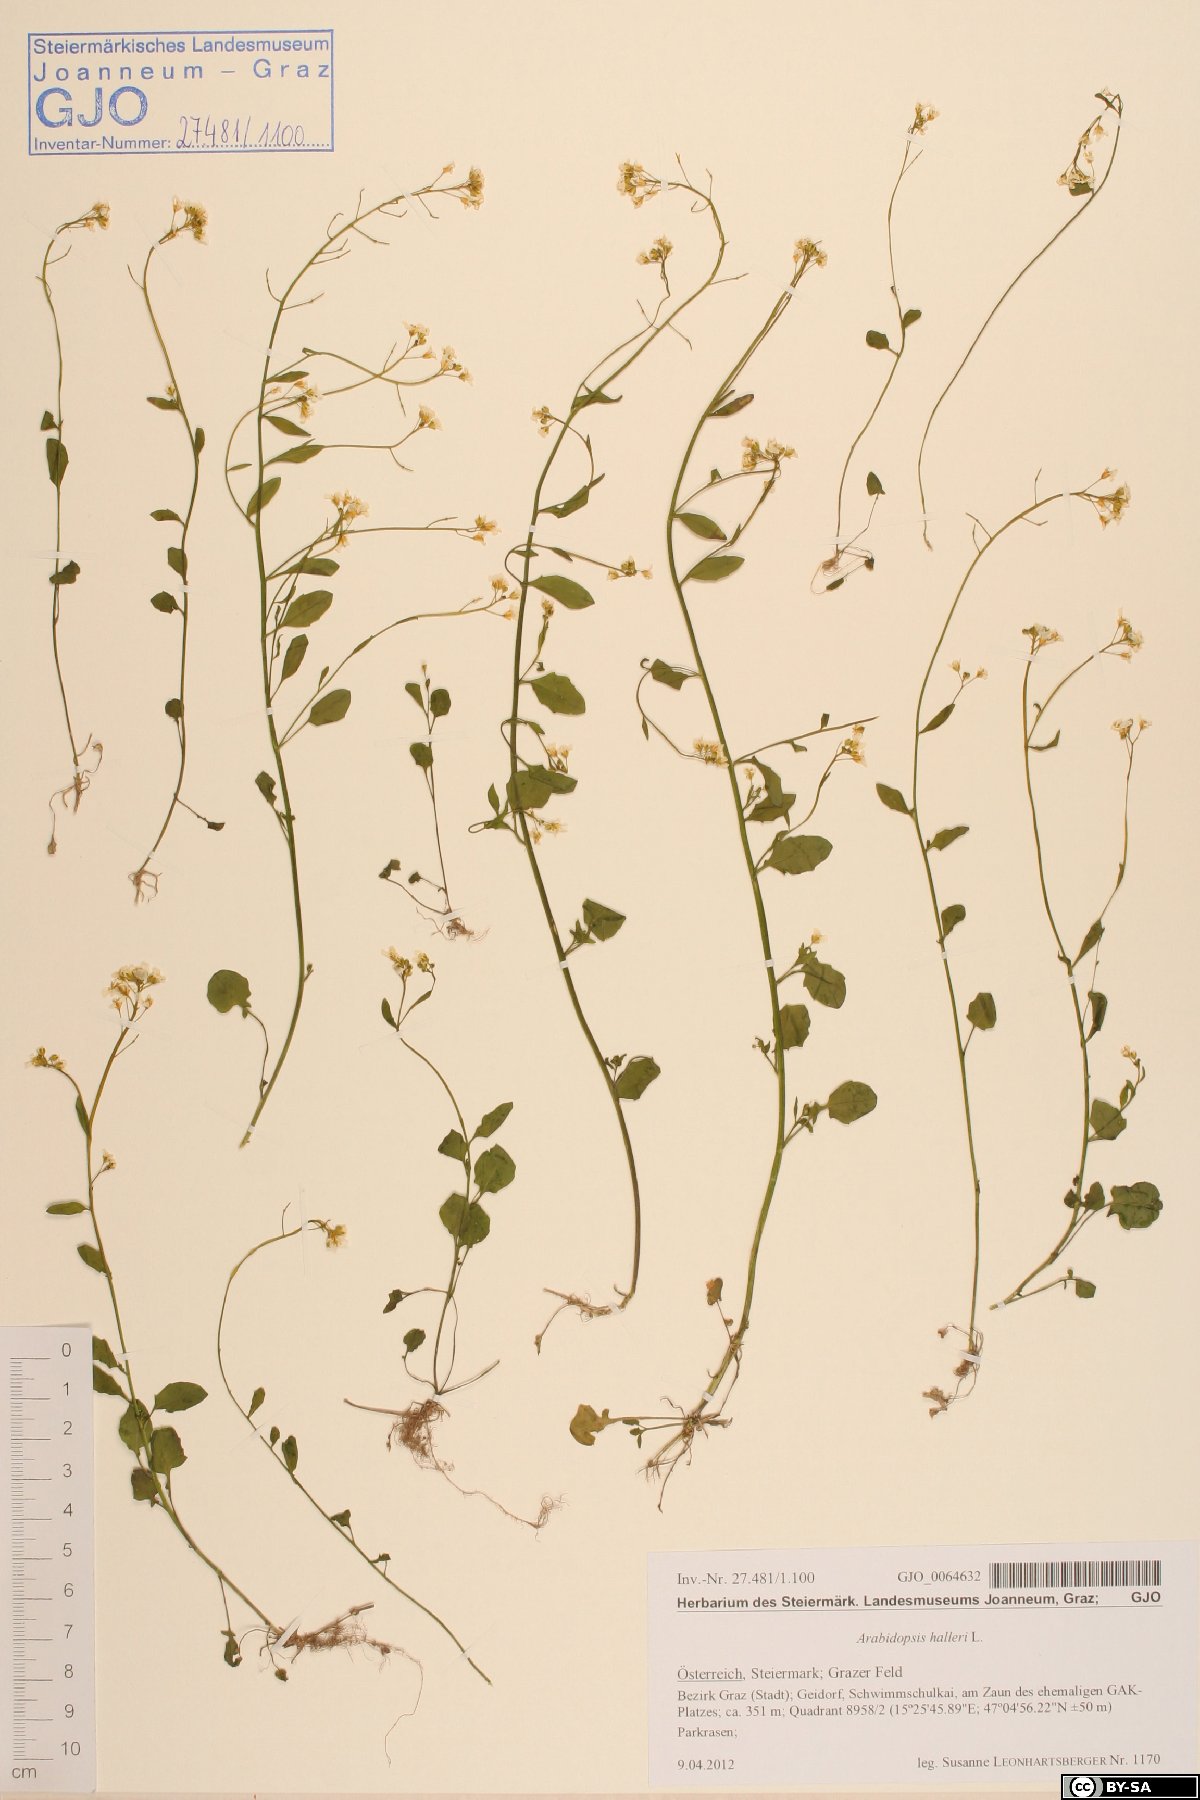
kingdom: Plantae
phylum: Tracheophyta
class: Magnoliopsida
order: Brassicales
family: Brassicaceae
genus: Arabidopsis
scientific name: Arabidopsis halleri
